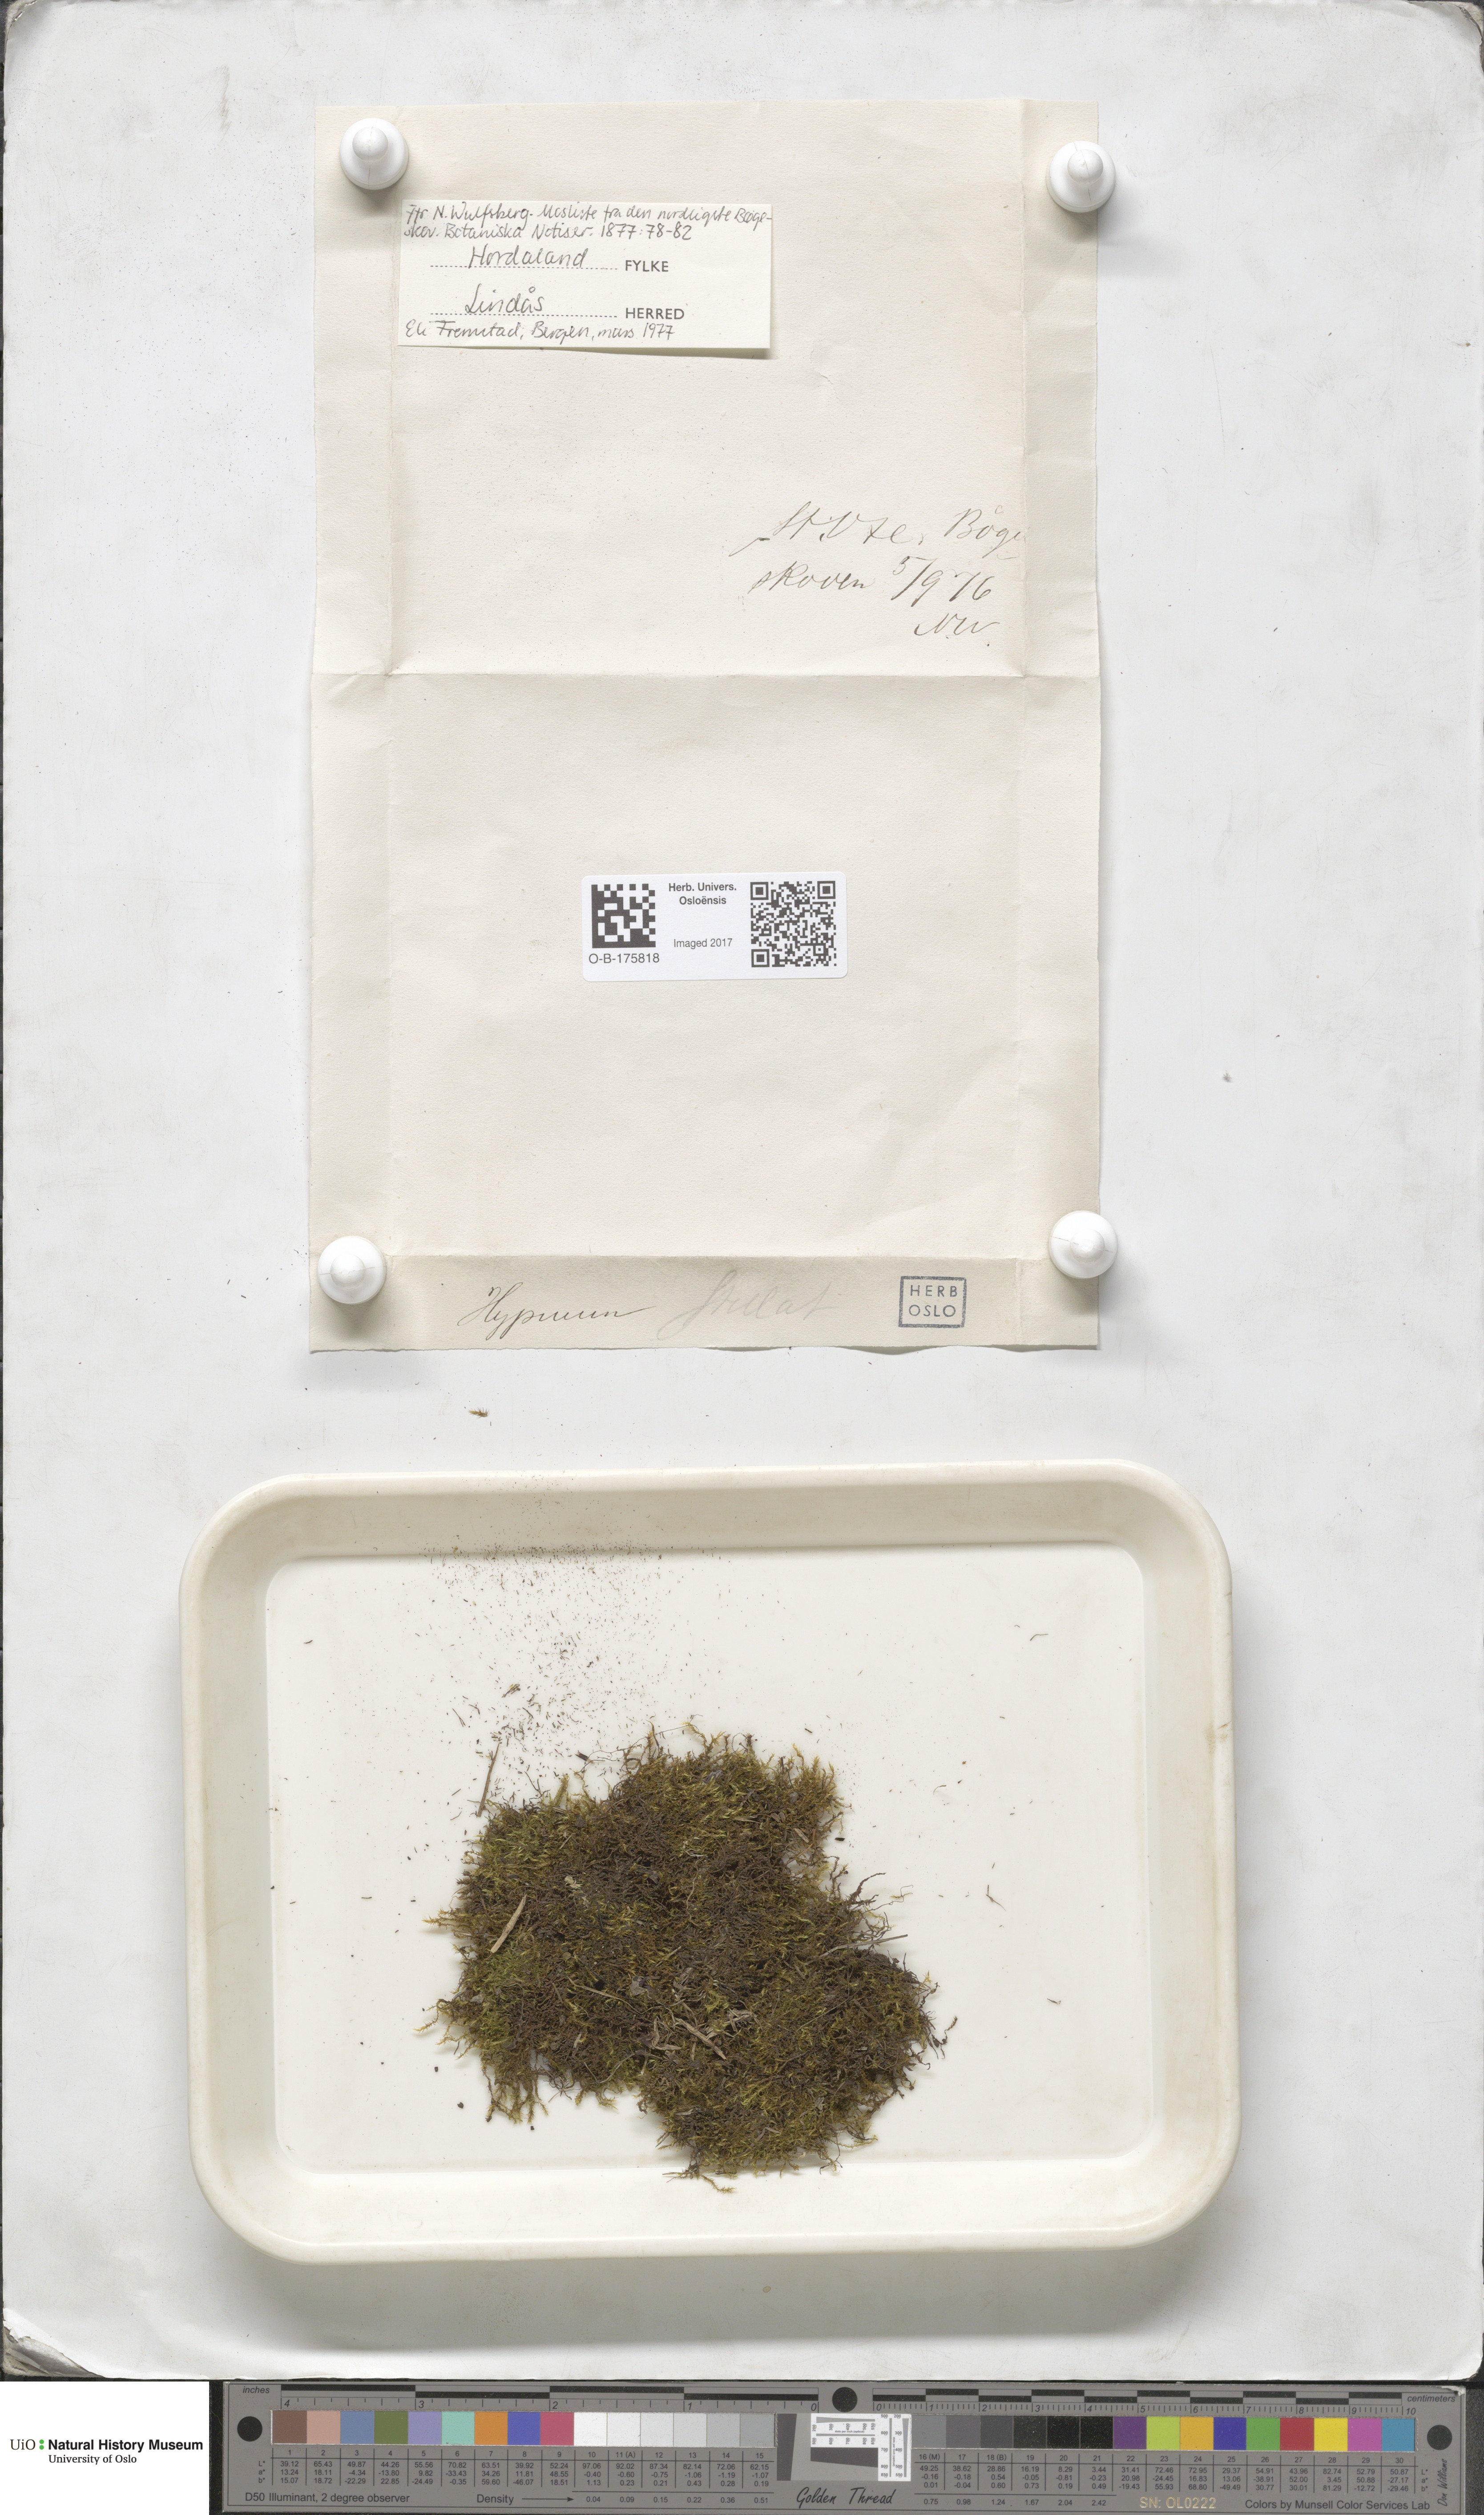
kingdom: Plantae
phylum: Bryophyta
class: Bryopsida
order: Hypnales
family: Amblystegiaceae
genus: Campylium
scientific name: Campylium stellatum
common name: Yellow starry fen moss
